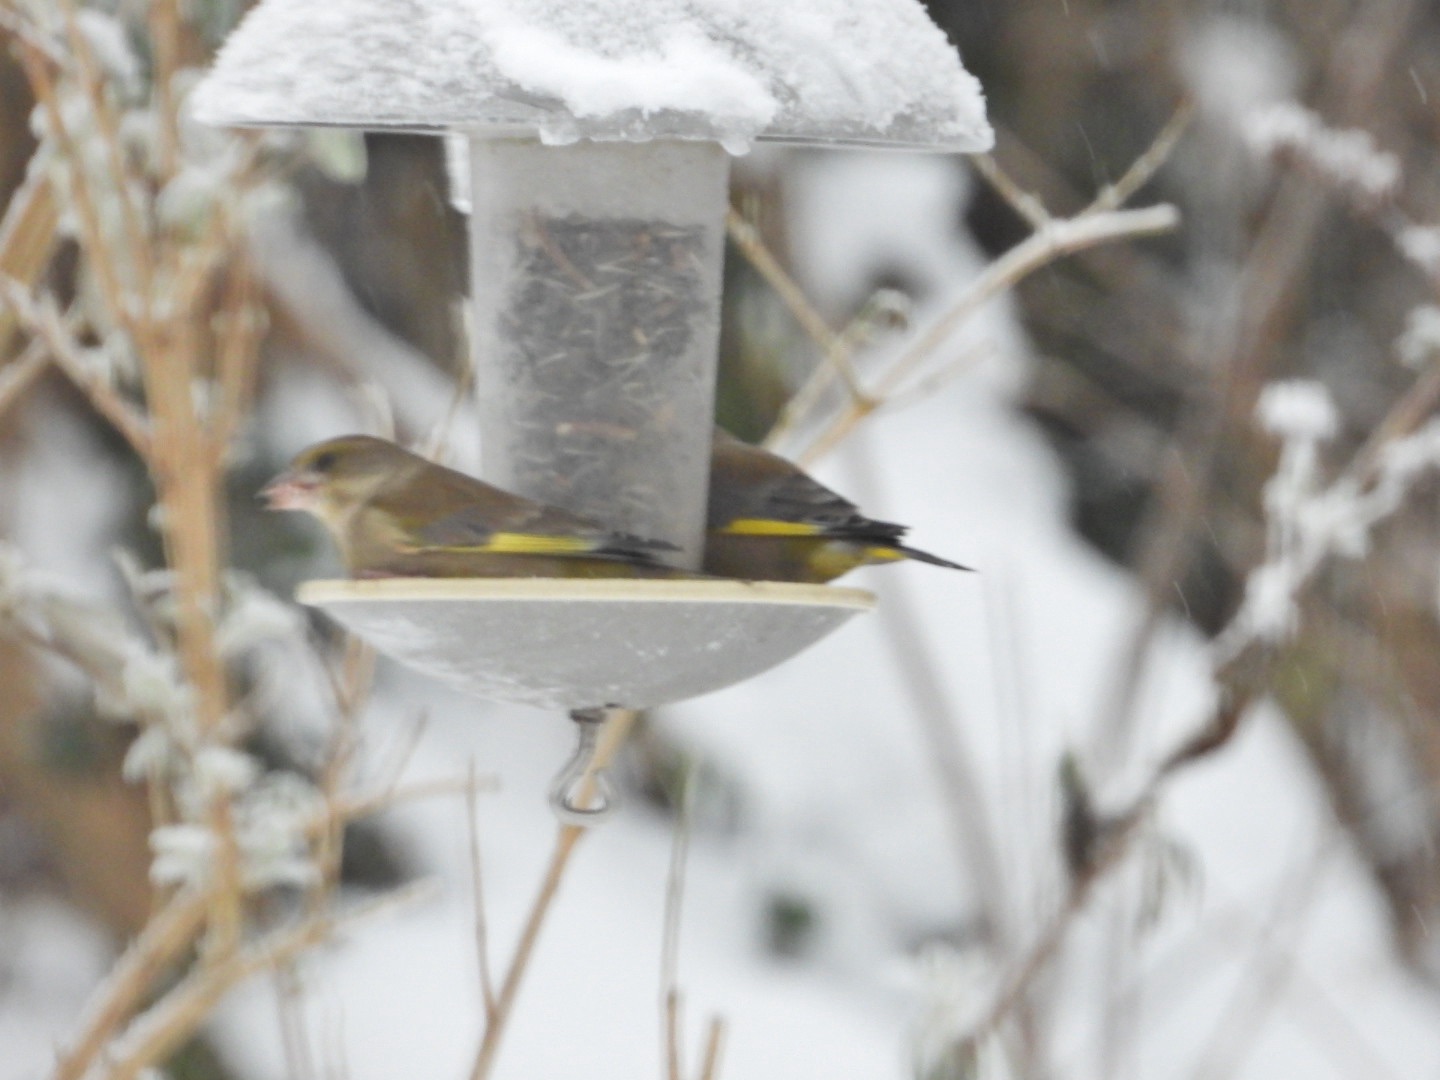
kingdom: Plantae
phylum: Tracheophyta
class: Liliopsida
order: Poales
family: Poaceae
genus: Chloris
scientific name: Chloris chloris
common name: Grønirisk
